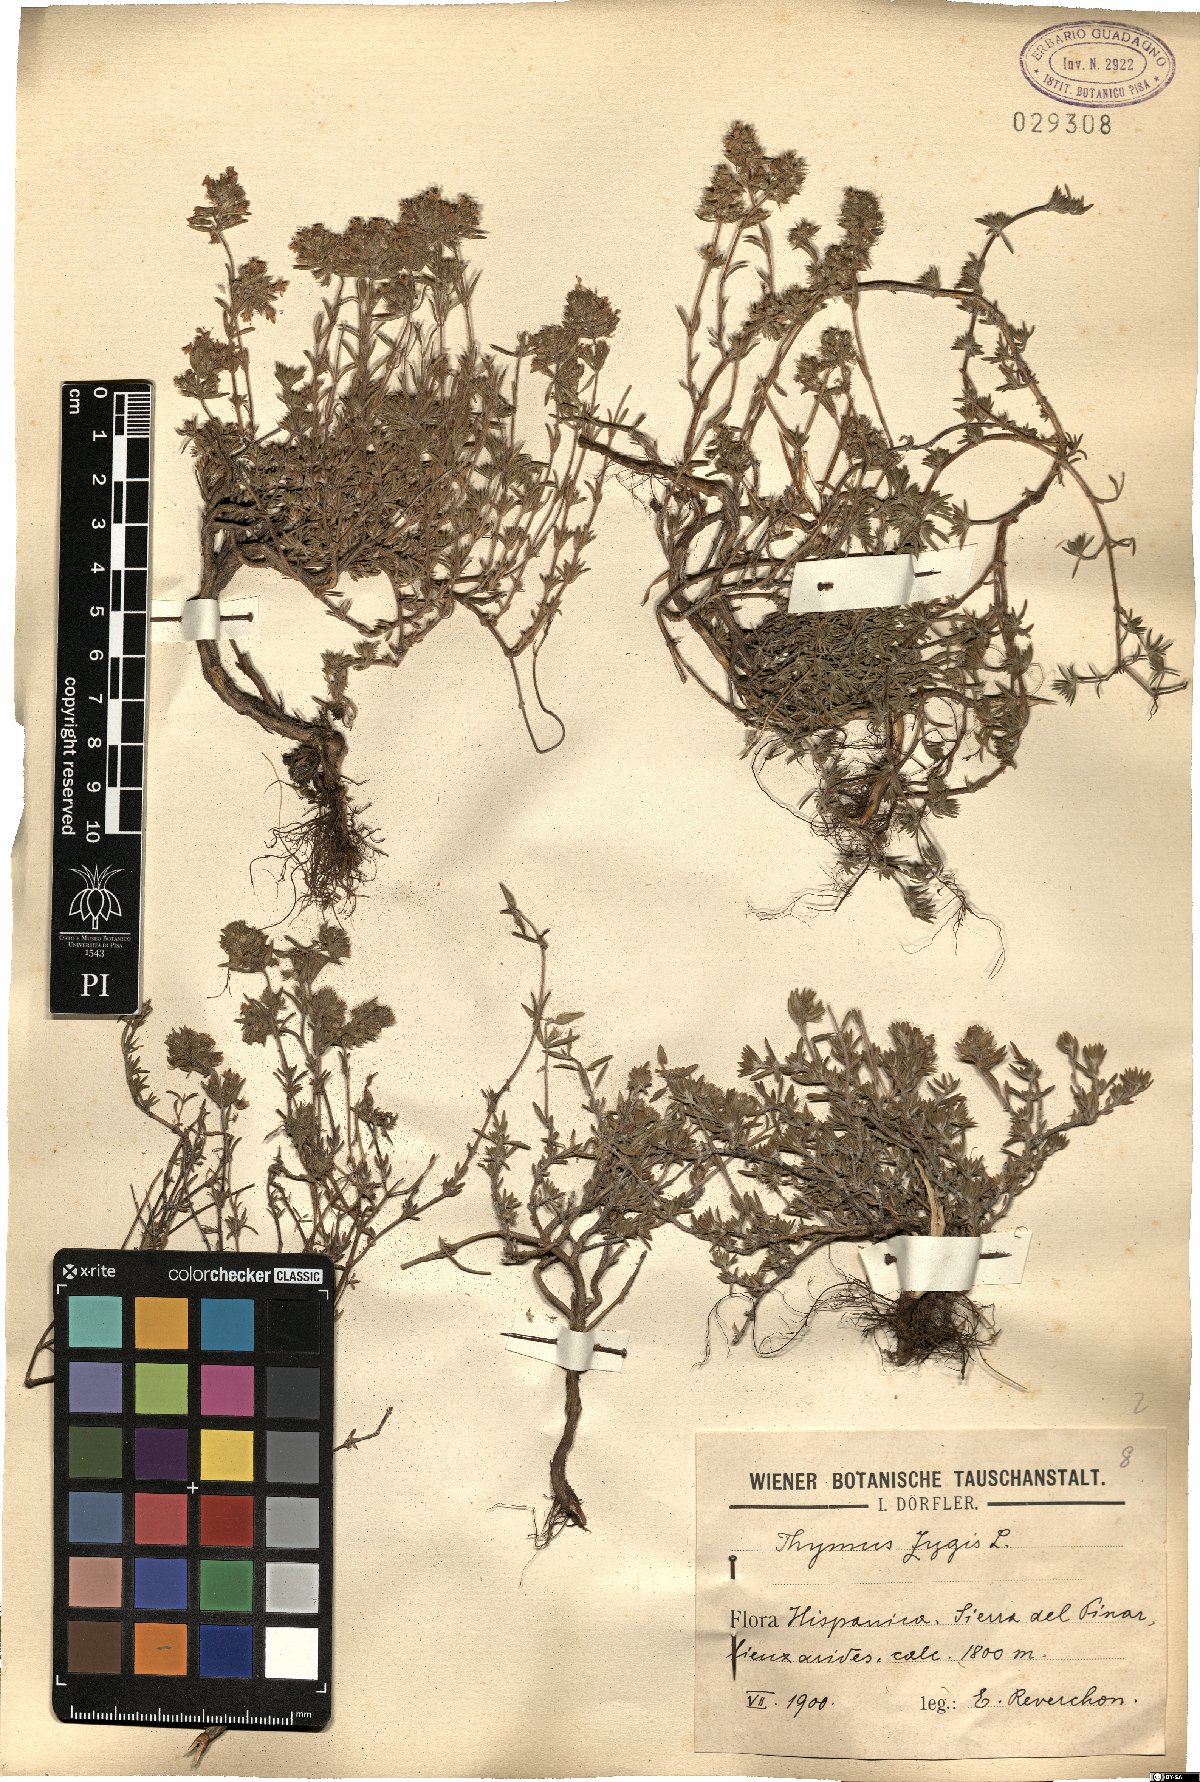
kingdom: Plantae
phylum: Tracheophyta
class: Magnoliopsida
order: Lamiales
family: Lamiaceae
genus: Thymus
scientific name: Thymus zygis
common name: White thyme
